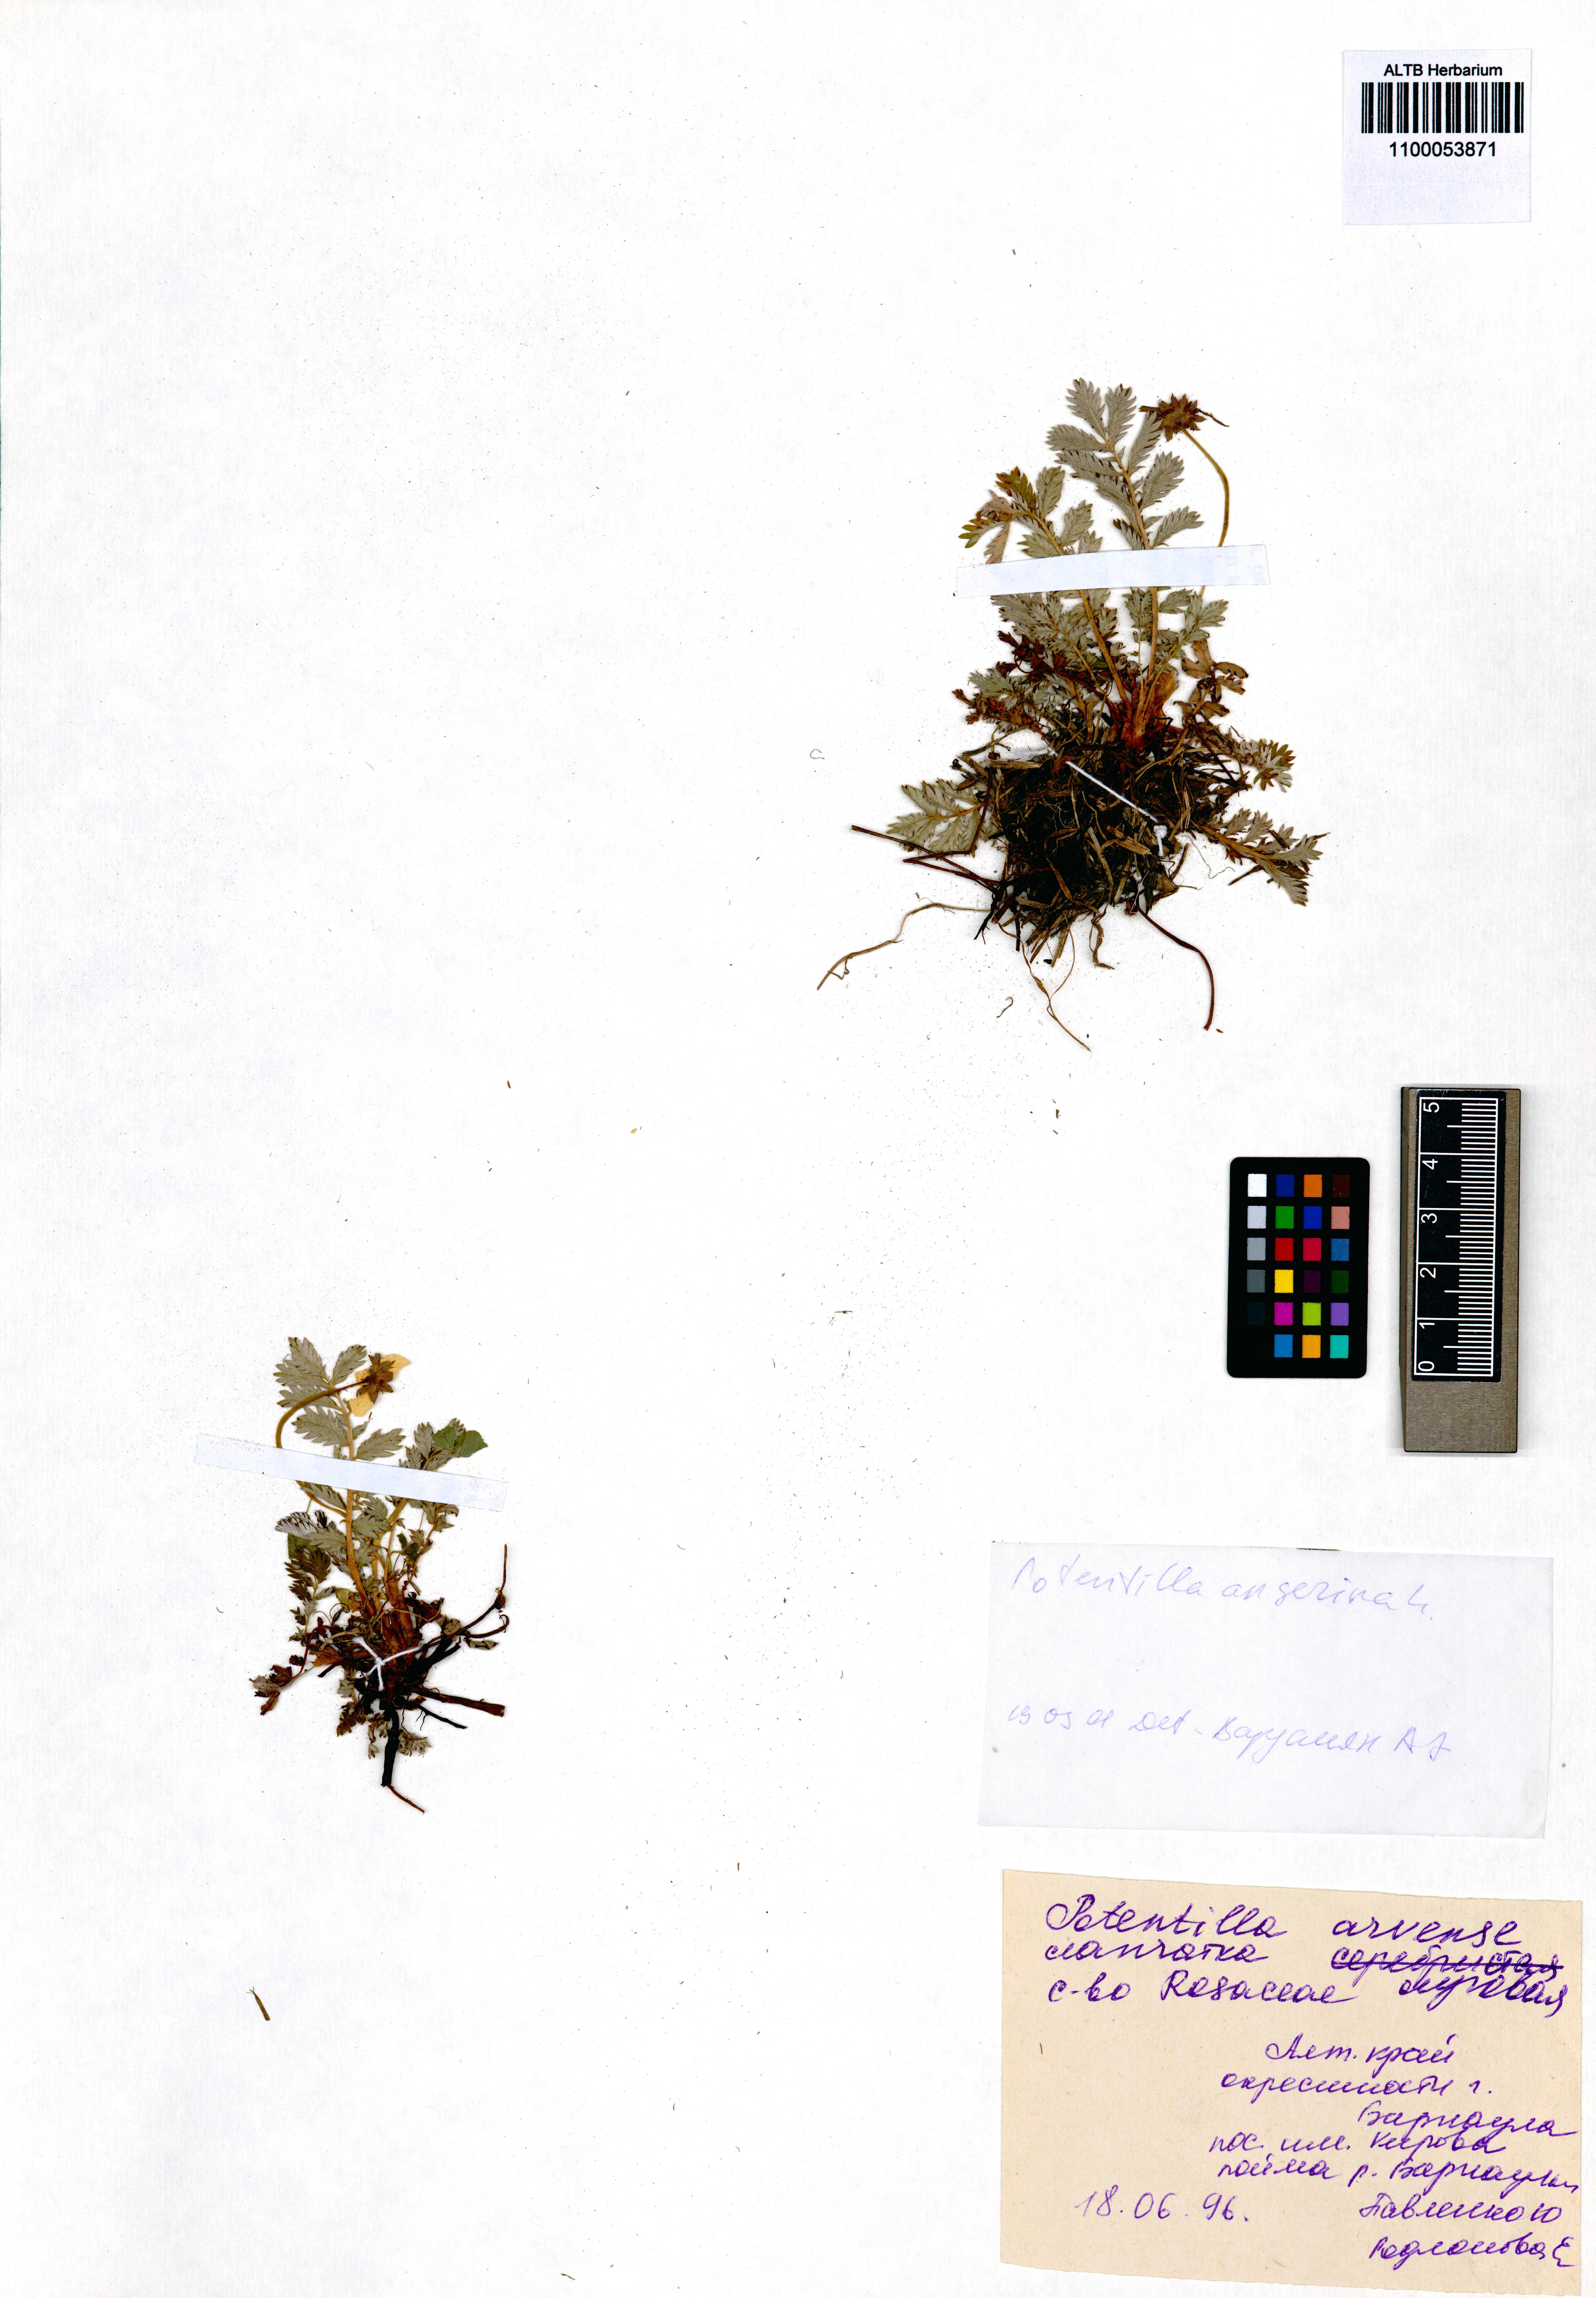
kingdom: Plantae
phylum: Tracheophyta
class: Magnoliopsida
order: Rosales
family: Rosaceae
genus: Argentina
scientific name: Argentina anserina
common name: Common silverweed
